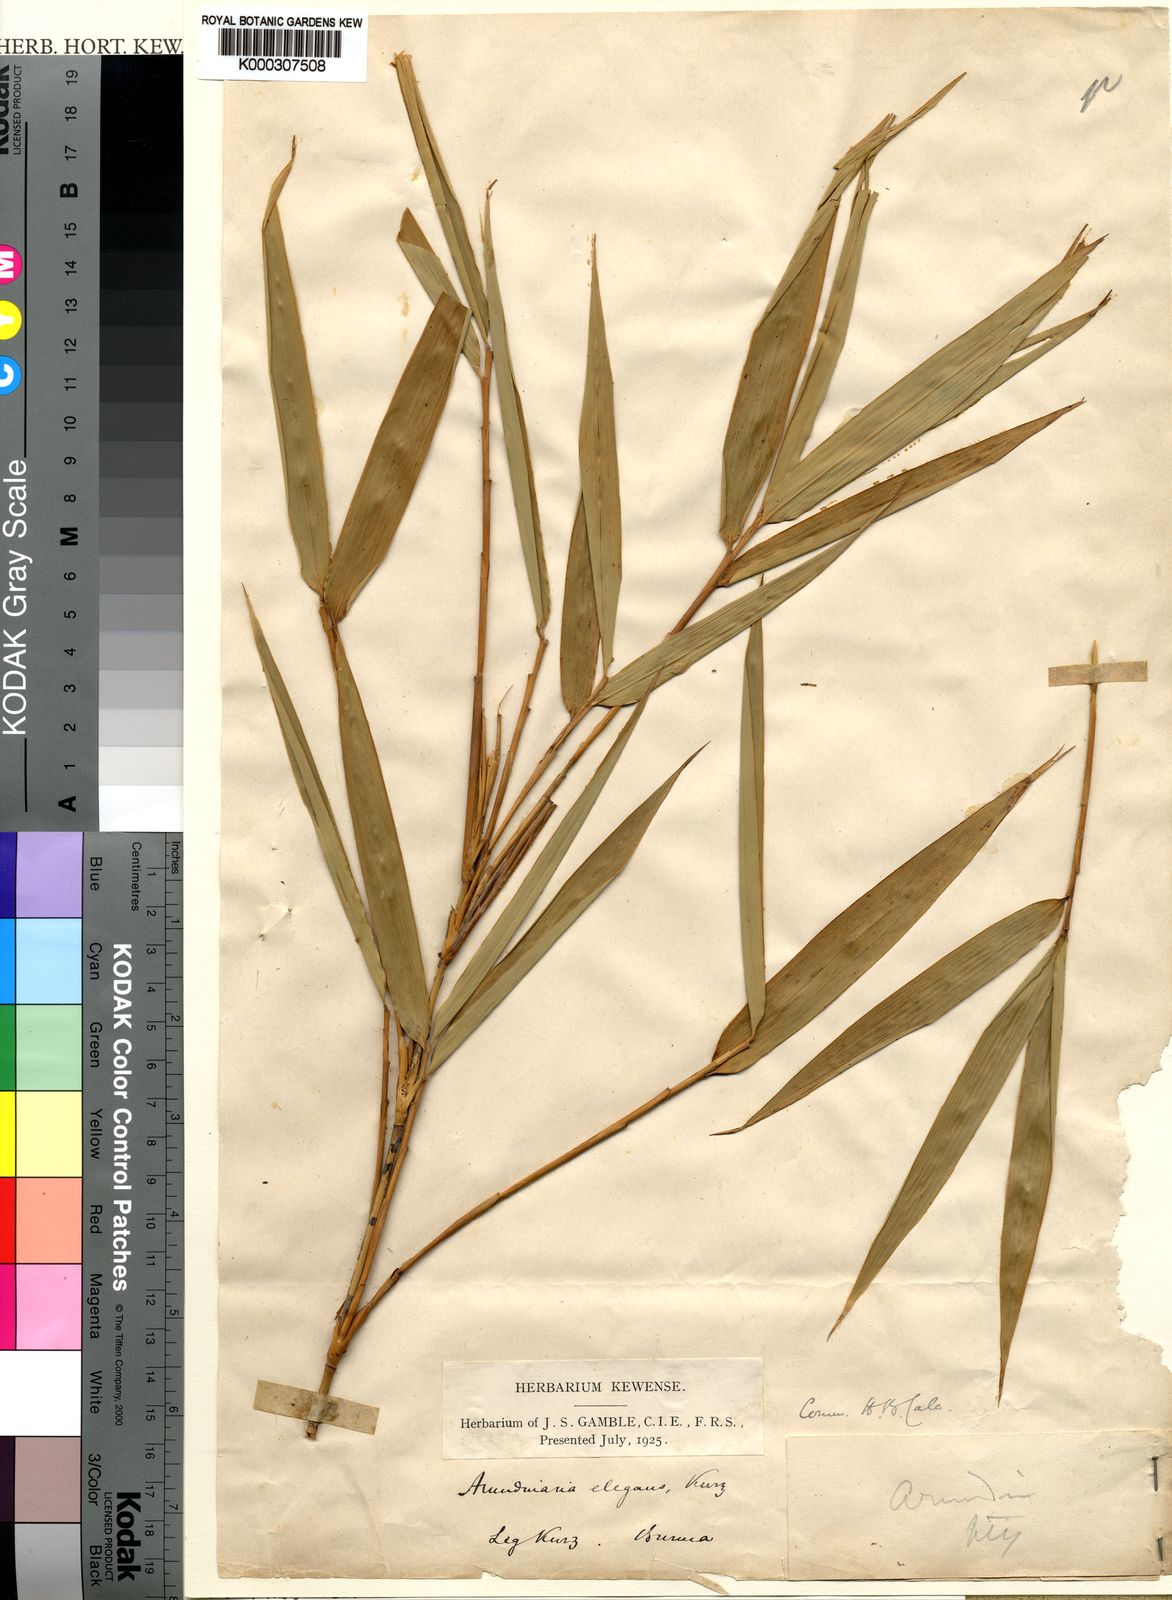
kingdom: Plantae
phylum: Tracheophyta
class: Liliopsida
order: Poales
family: Poaceae
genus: Yushania
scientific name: Yushania elegans
